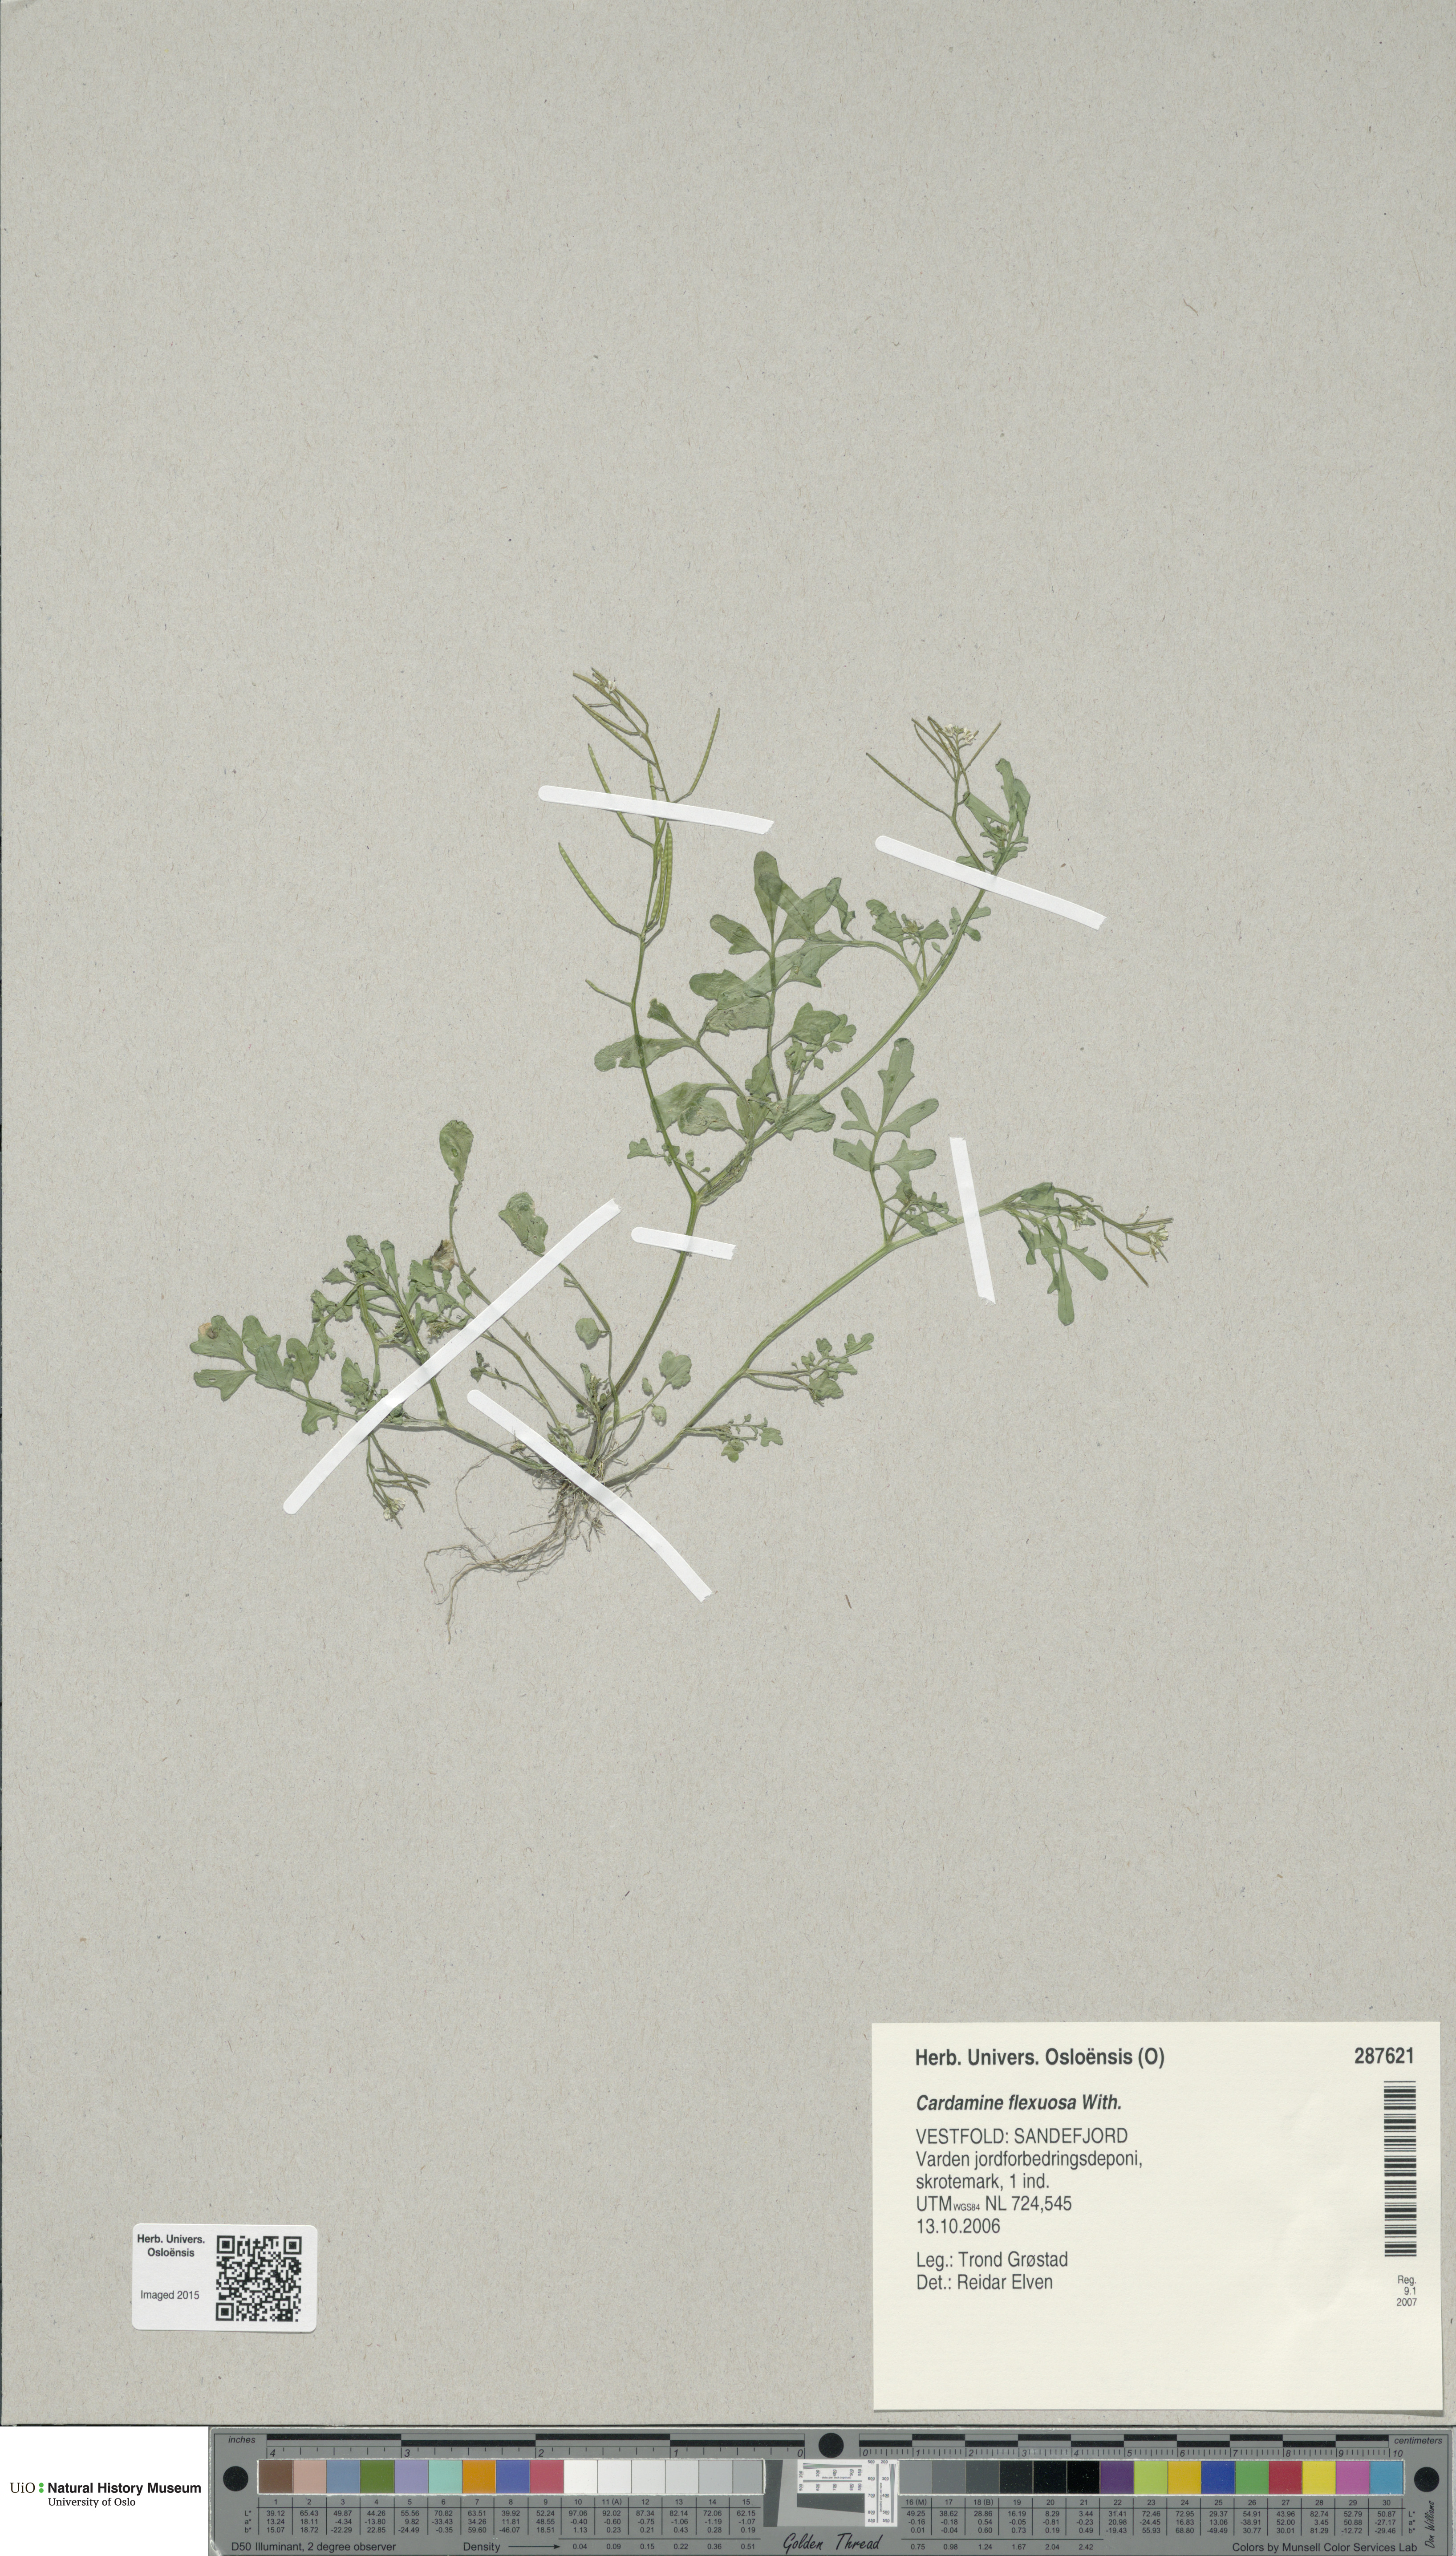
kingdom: Plantae
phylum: Tracheophyta
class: Magnoliopsida
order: Brassicales
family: Brassicaceae
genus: Cardamine
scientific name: Cardamine flexuosa
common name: Woodland bittercress
